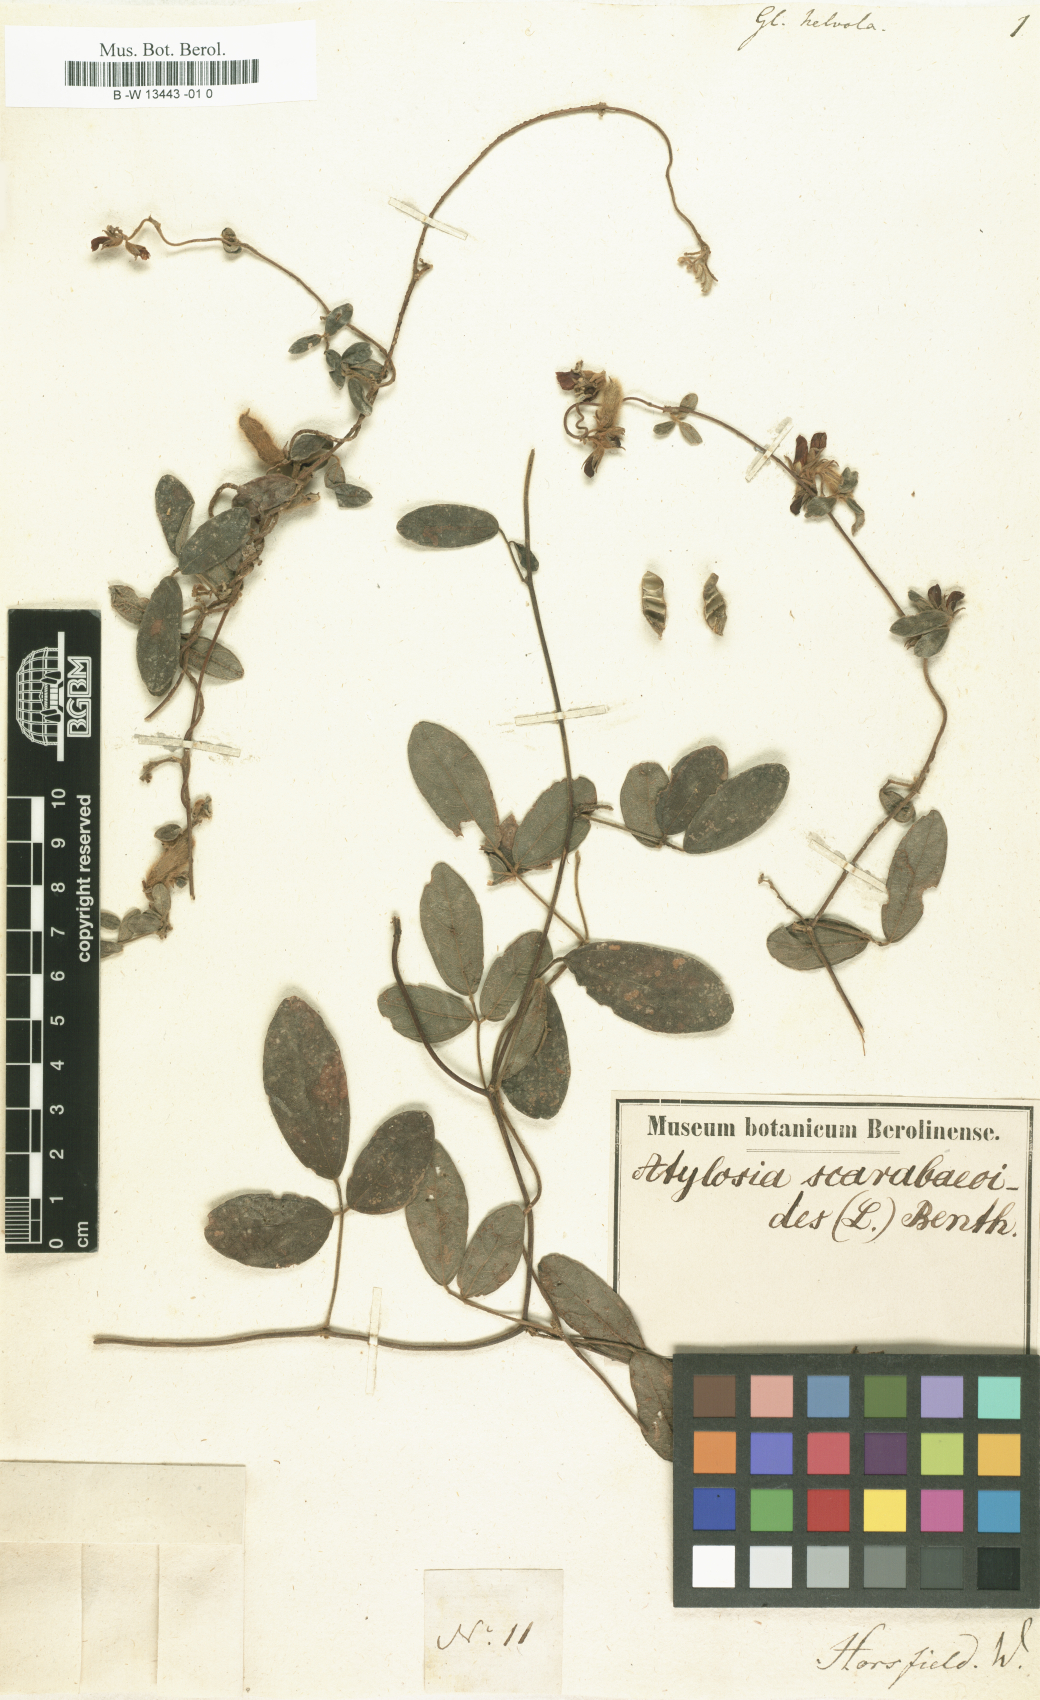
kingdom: Plantae
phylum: Tracheophyta
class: Magnoliopsida
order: Fabales
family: Fabaceae
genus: Strophostyles
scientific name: Strophostyles helvola
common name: Trailing wild bean
